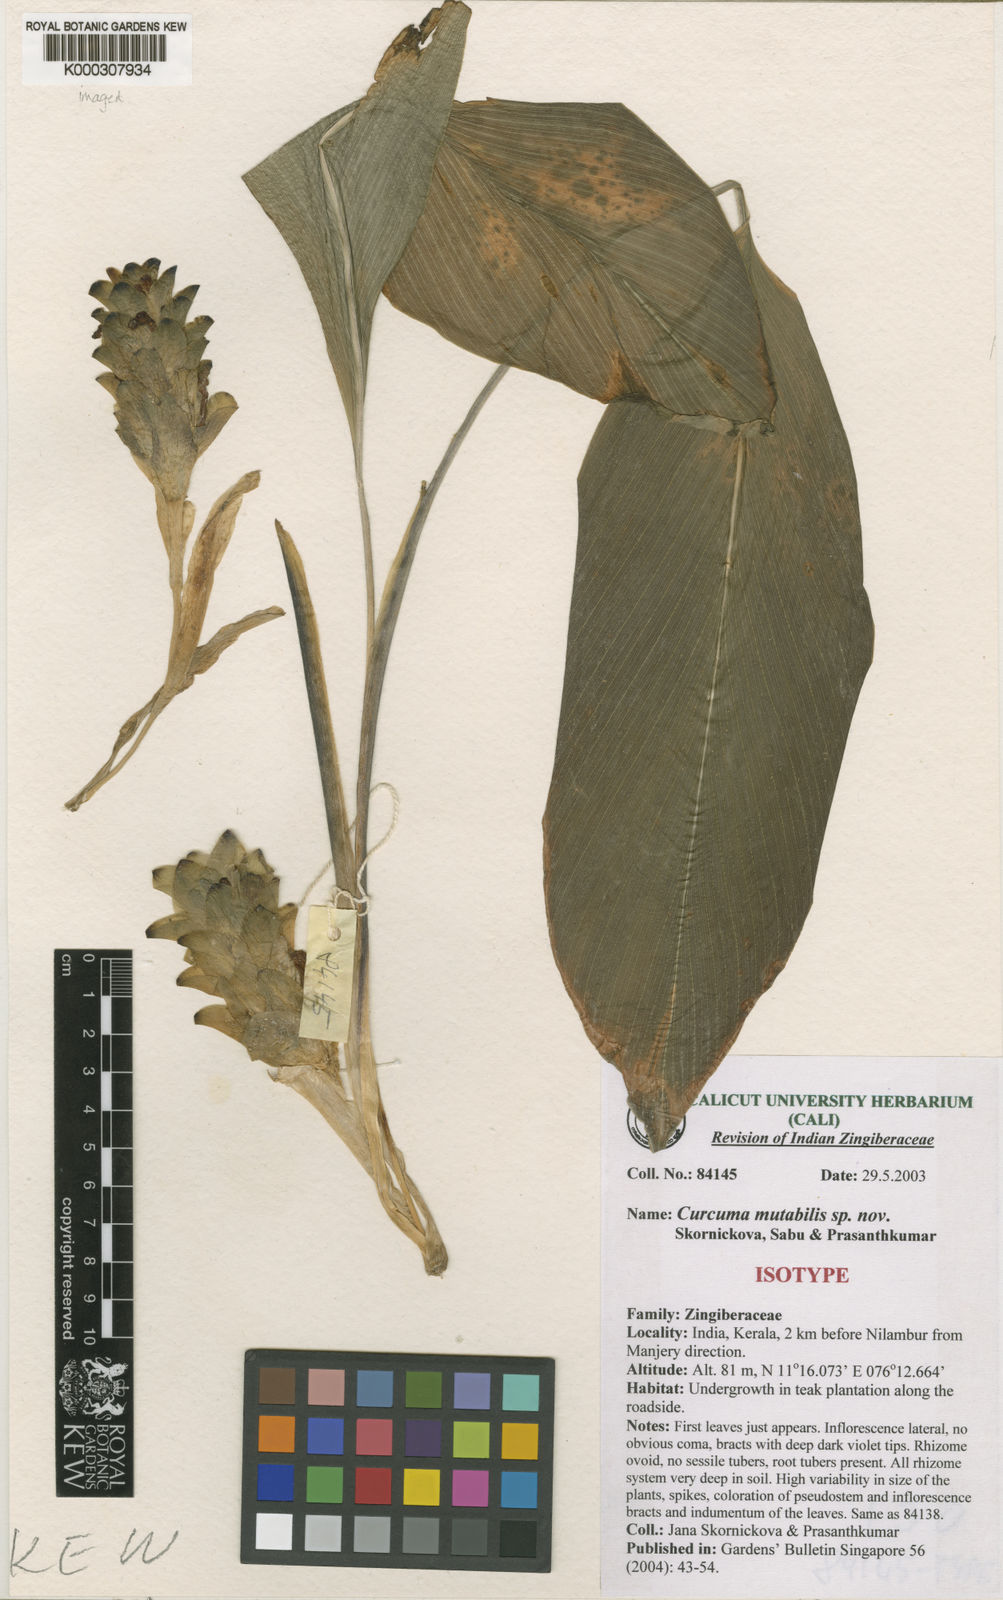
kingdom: Plantae
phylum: Tracheophyta
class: Liliopsida
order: Zingiberales
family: Zingiberaceae
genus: Curcuma
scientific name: Curcuma
